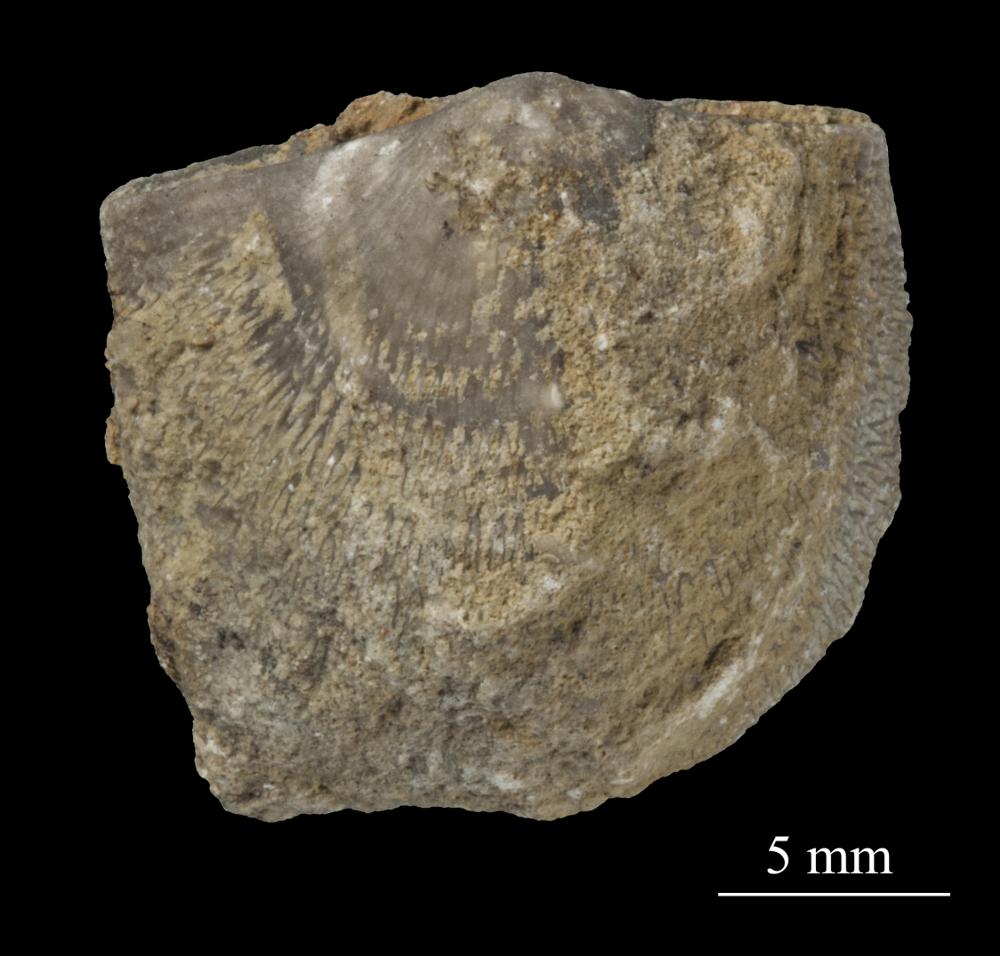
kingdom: Animalia
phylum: Brachiopoda
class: Rhynchonellata
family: Clitambonitidae
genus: Clitambonites
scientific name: Clitambonites squamatus
